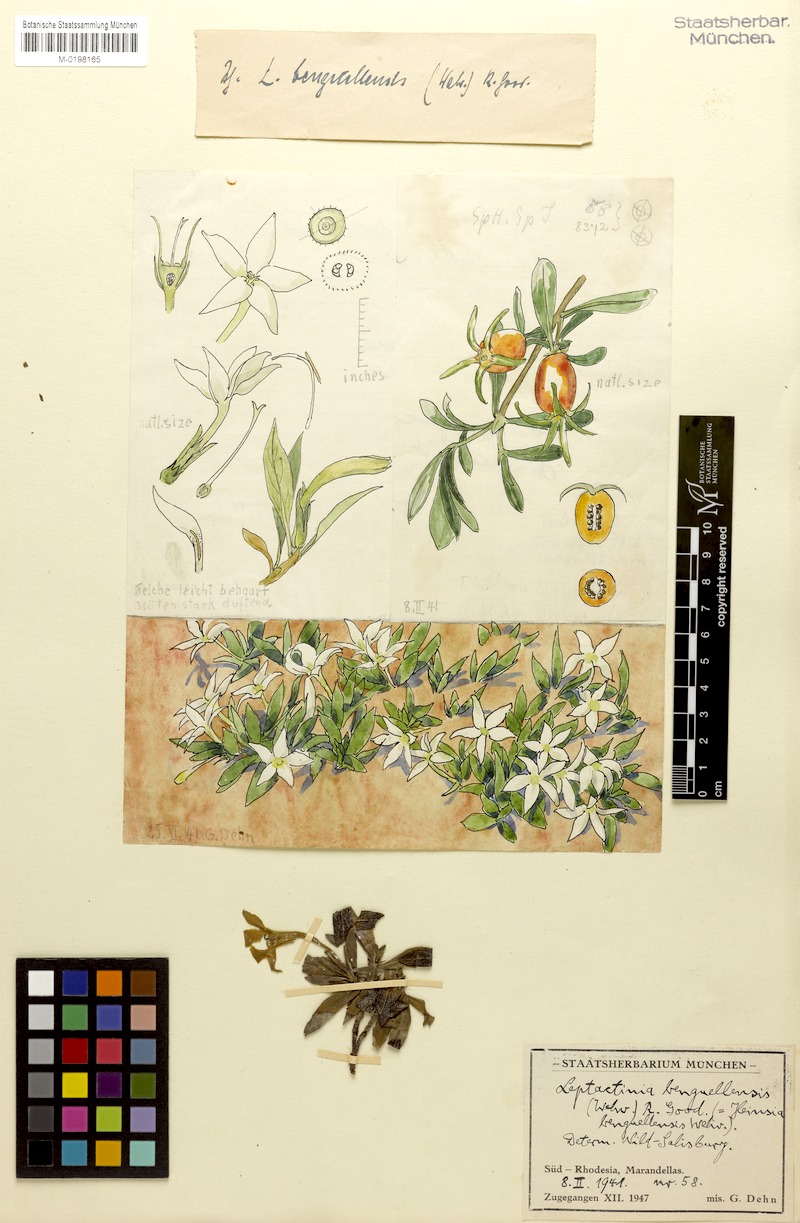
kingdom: Plantae
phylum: Tracheophyta
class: Magnoliopsida
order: Gentianales
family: Rubiaceae
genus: Leptactina
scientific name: Leptactina benguelensis
